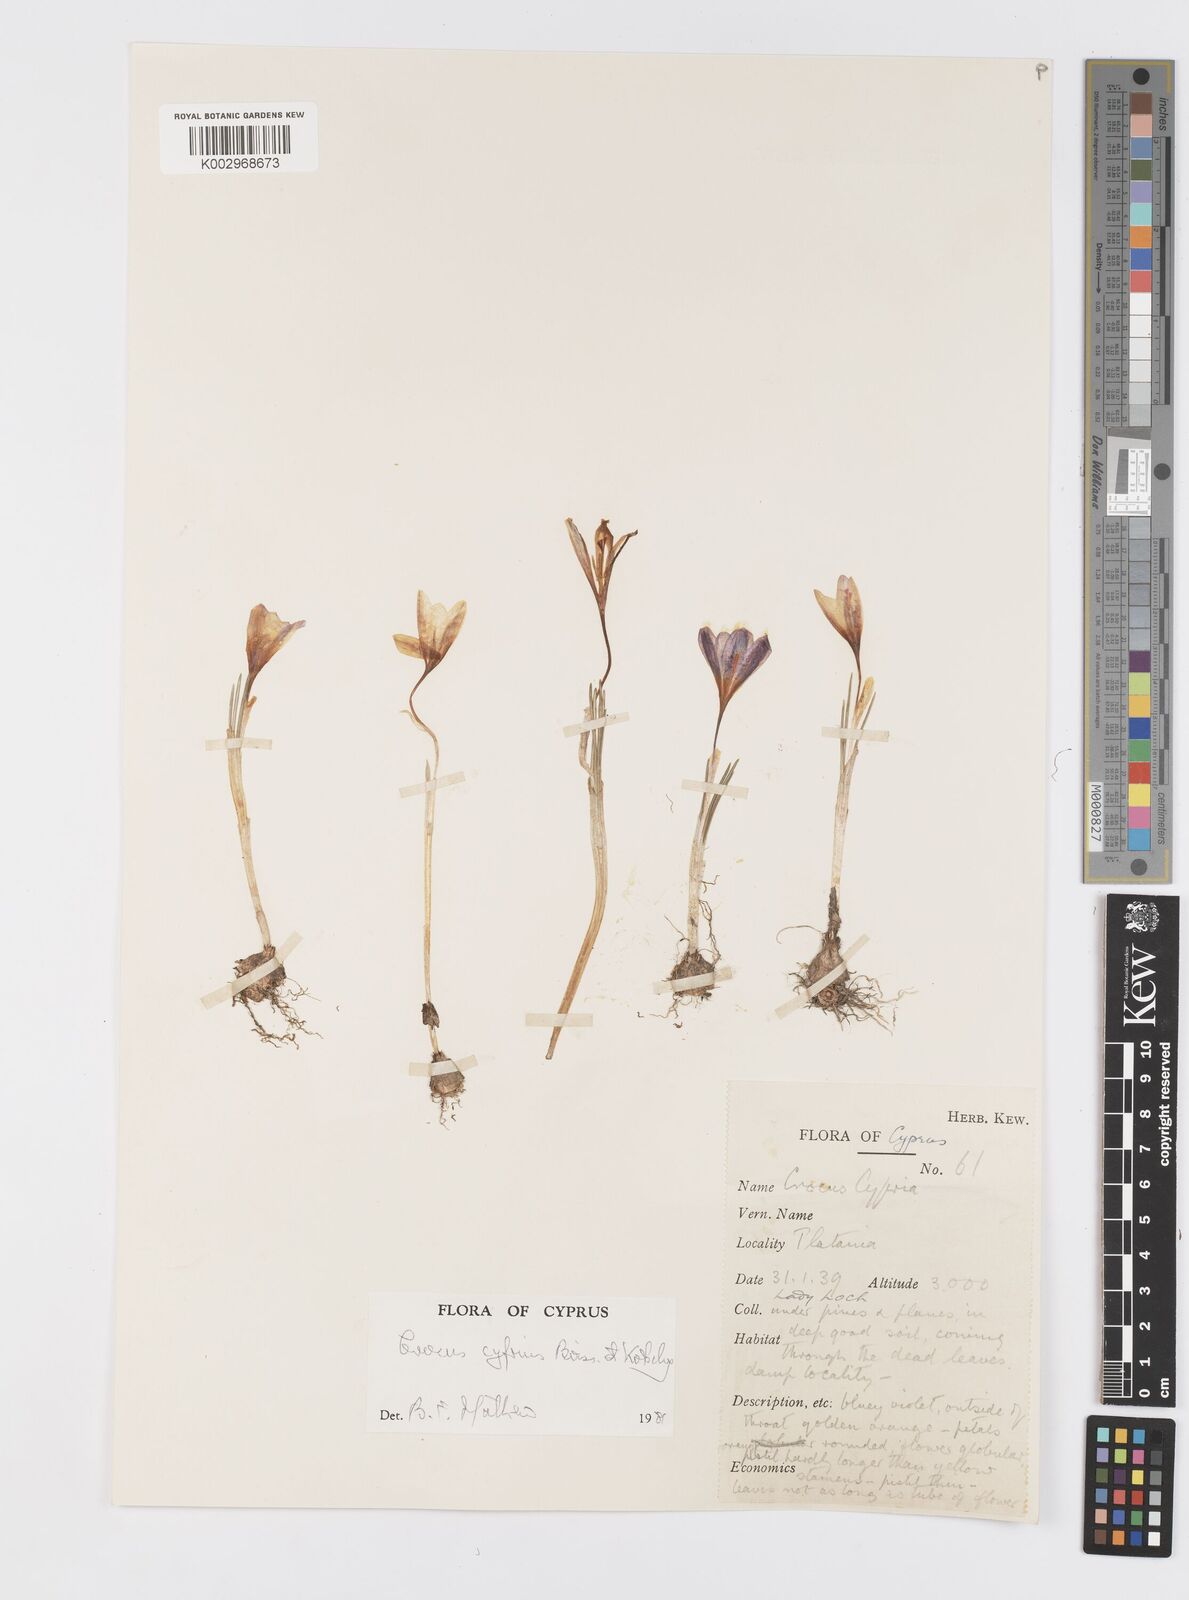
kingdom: Plantae
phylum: Tracheophyta
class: Liliopsida
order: Asparagales
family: Iridaceae
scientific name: Iridaceae
